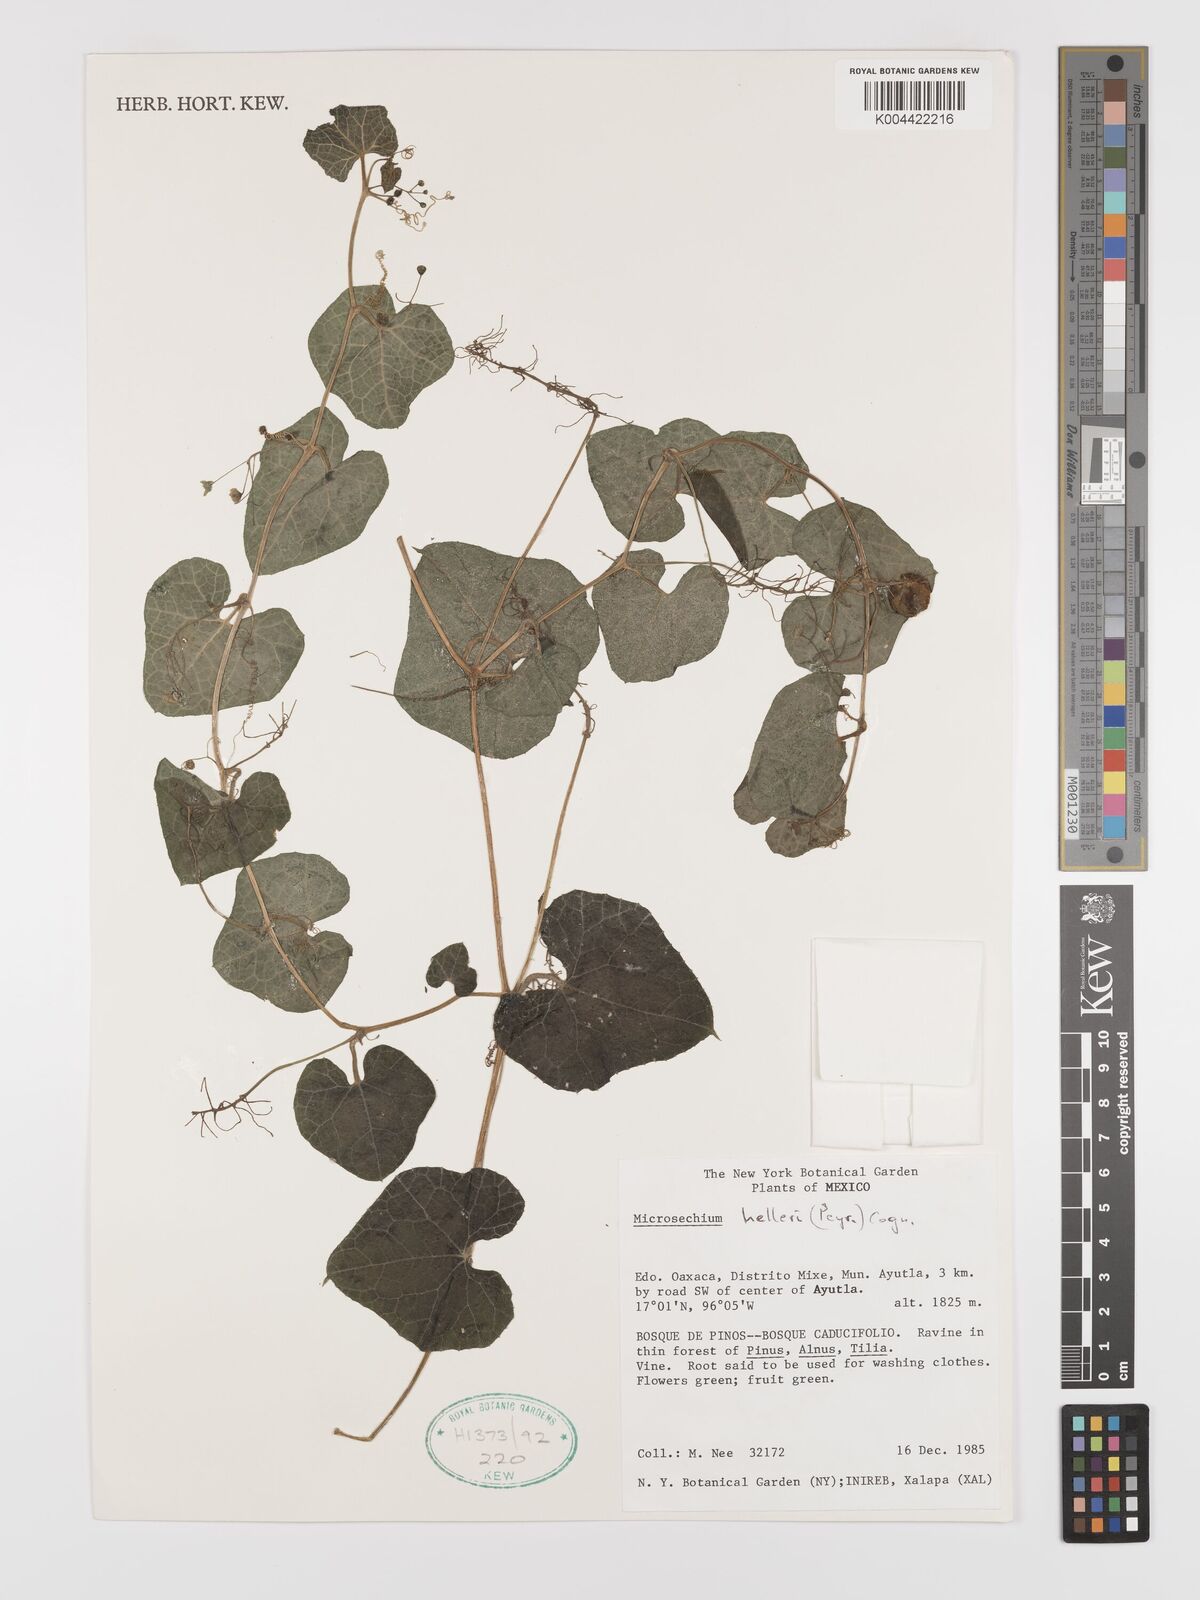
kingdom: Plantae
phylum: Tracheophyta
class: Magnoliopsida
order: Cucurbitales
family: Cucurbitaceae
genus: Microsechium
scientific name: Microsechium palmatum
